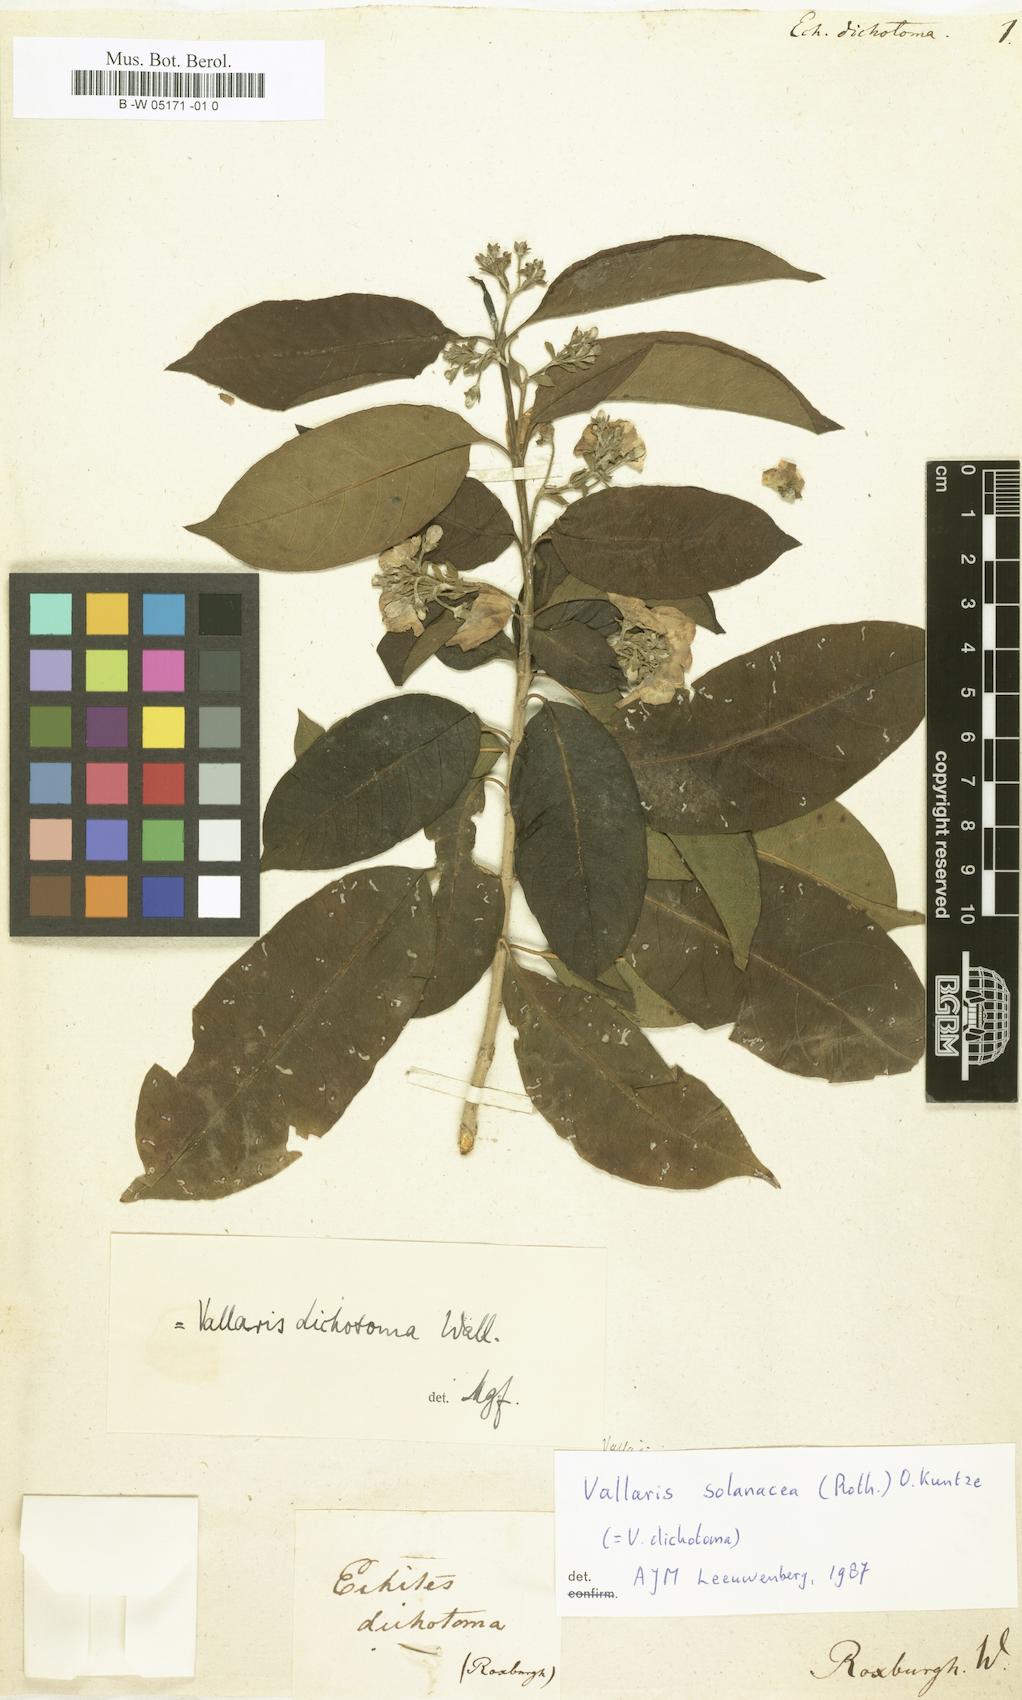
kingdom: Plantae
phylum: Tracheophyta
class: Magnoliopsida
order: Gentianales
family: Apocynaceae
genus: Vallaris
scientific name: Vallaris solanacea
